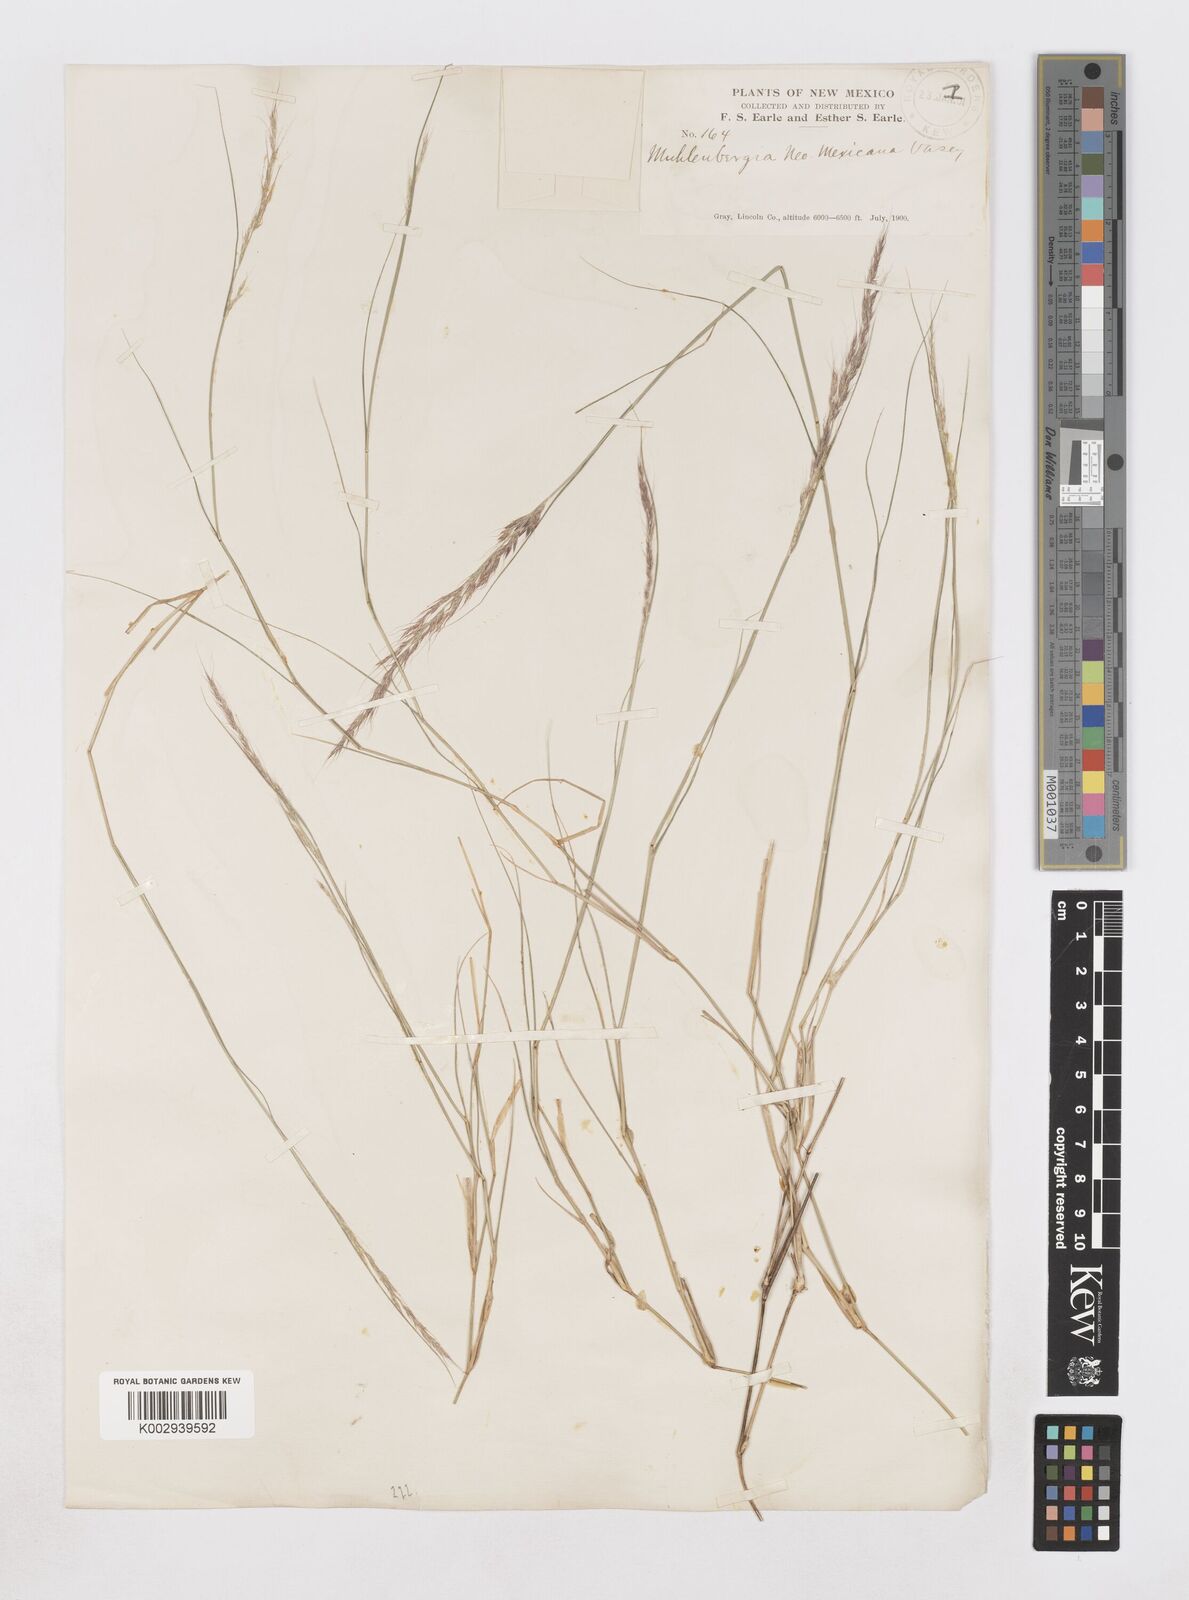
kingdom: Plantae
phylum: Tracheophyta
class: Liliopsida
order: Poales
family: Poaceae
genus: Muhlenbergia
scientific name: Muhlenbergia pauciflora
